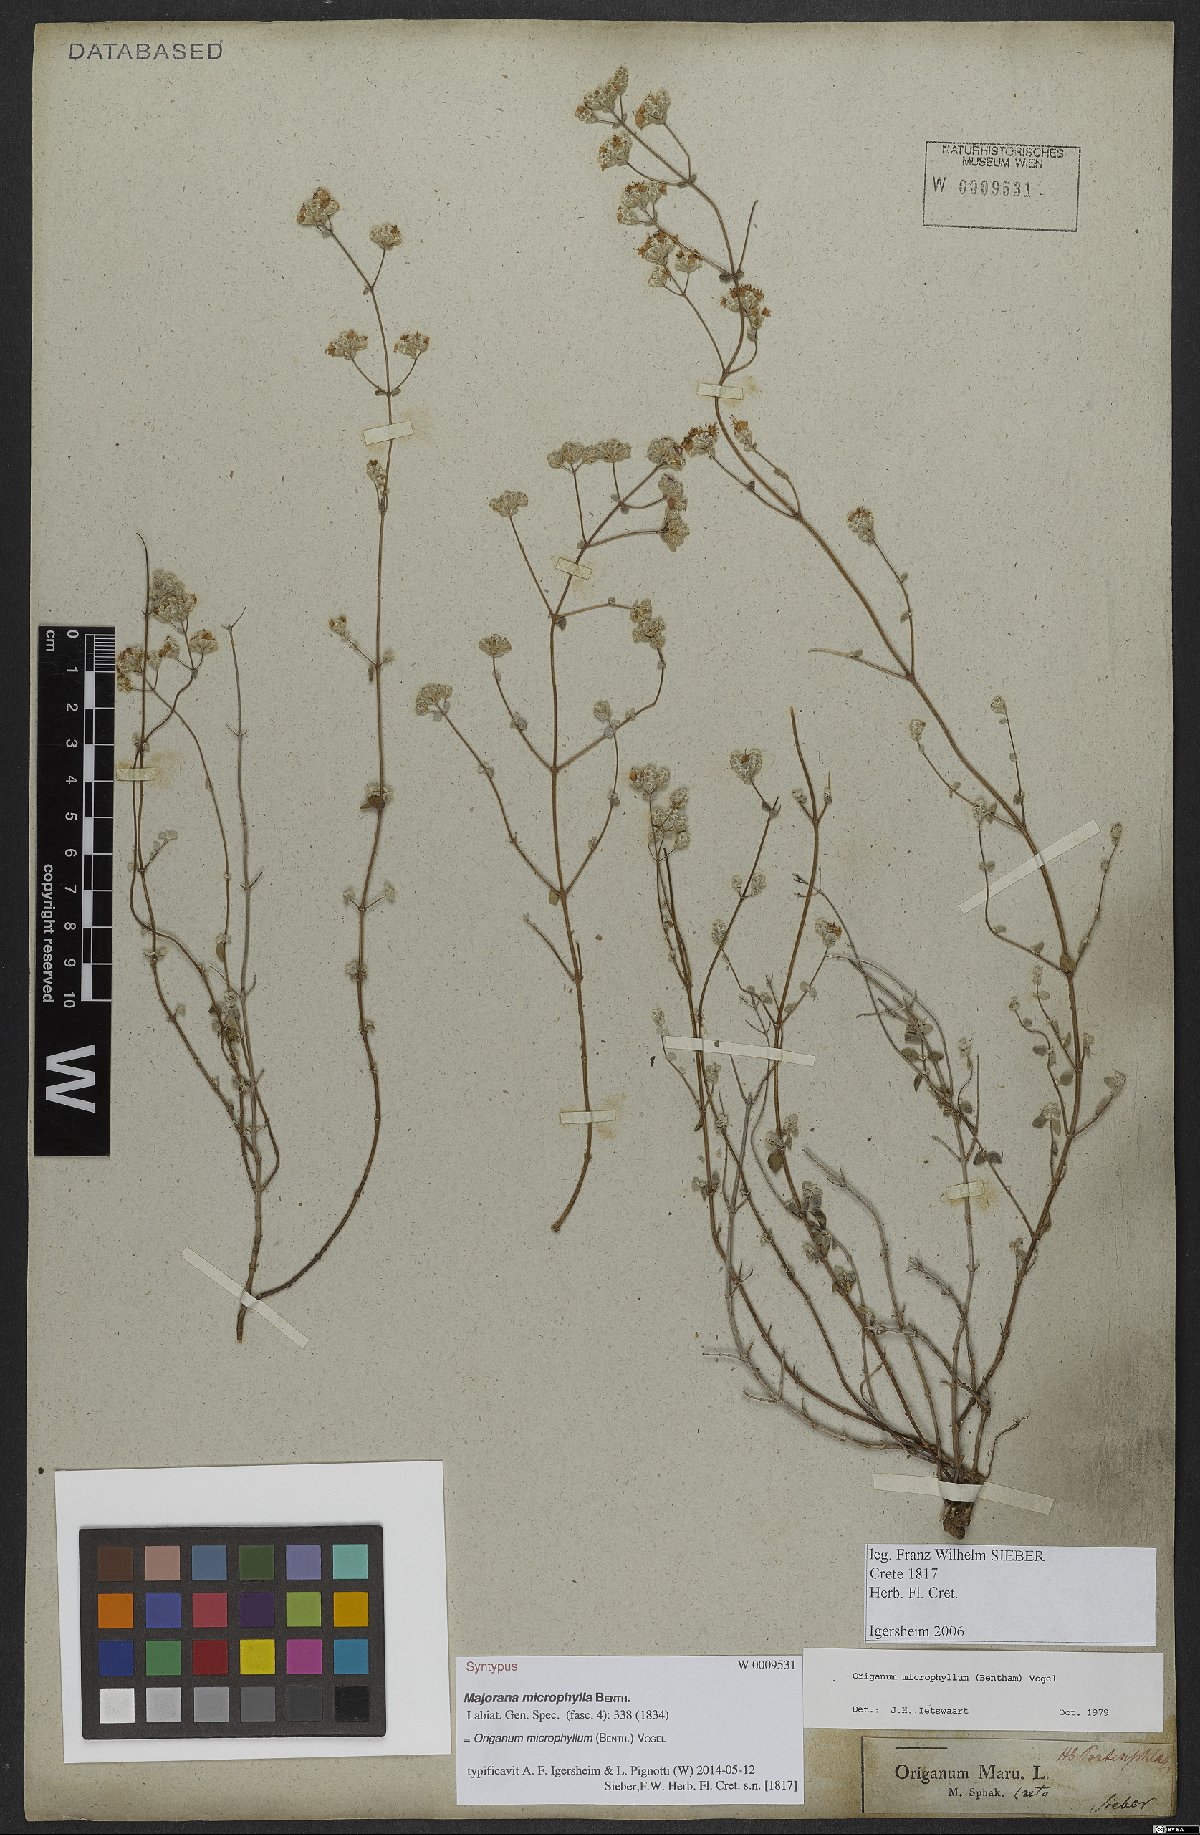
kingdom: Plantae
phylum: Tracheophyta
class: Magnoliopsida
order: Lamiales
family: Lamiaceae
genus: Origanum
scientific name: Origanum microphyllum
